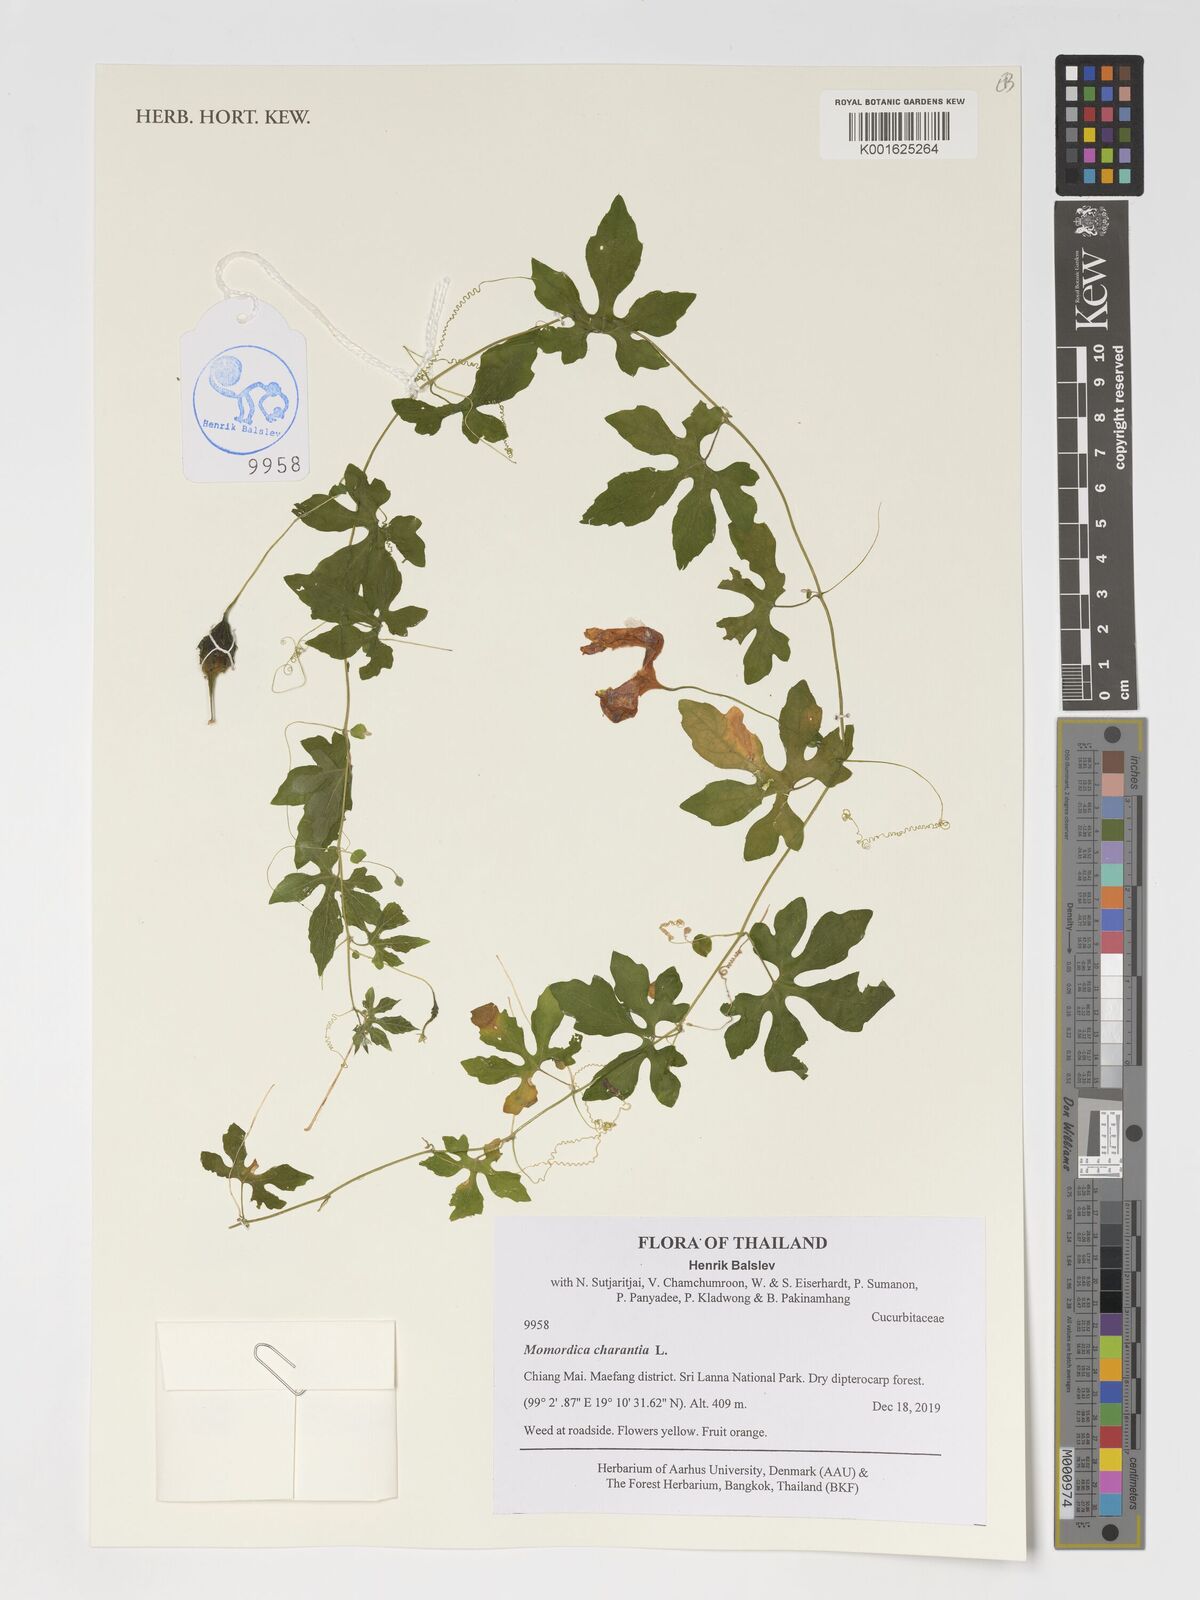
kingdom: Plantae
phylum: Tracheophyta
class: Magnoliopsida
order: Cucurbitales
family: Cucurbitaceae
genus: Momordica
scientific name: Momordica charantia
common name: Balsampear
